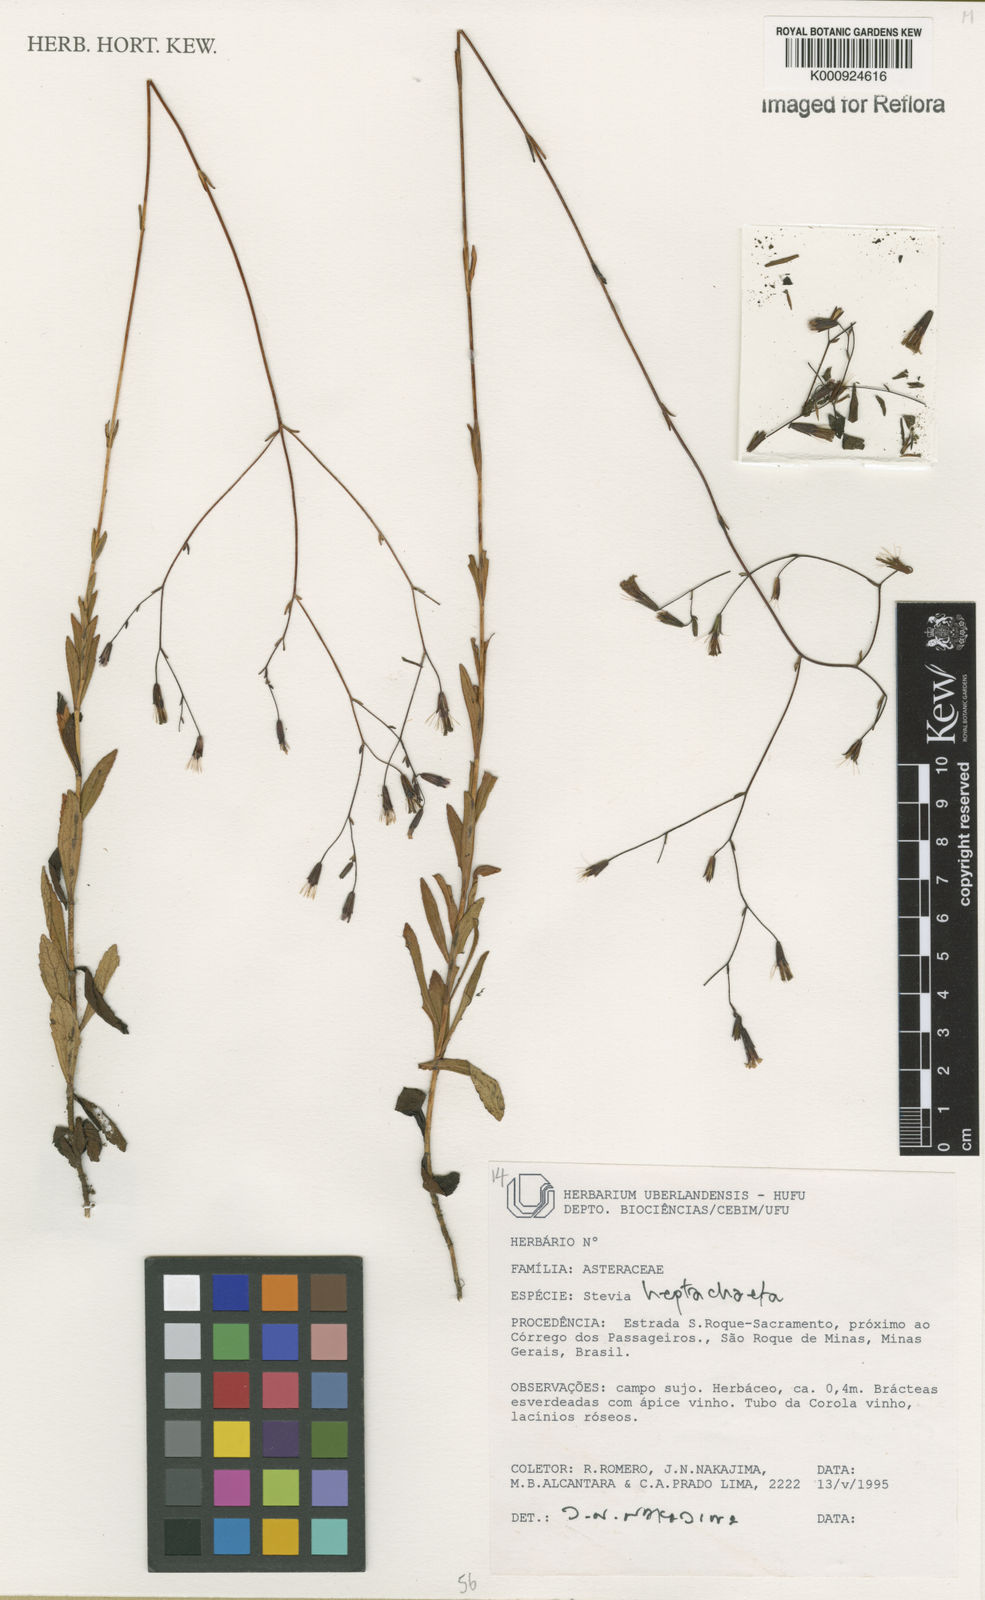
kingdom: Plantae
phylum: Tracheophyta
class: Magnoliopsida
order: Asterales
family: Asteraceae
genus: Stevia
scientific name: Stevia heptachaeta
